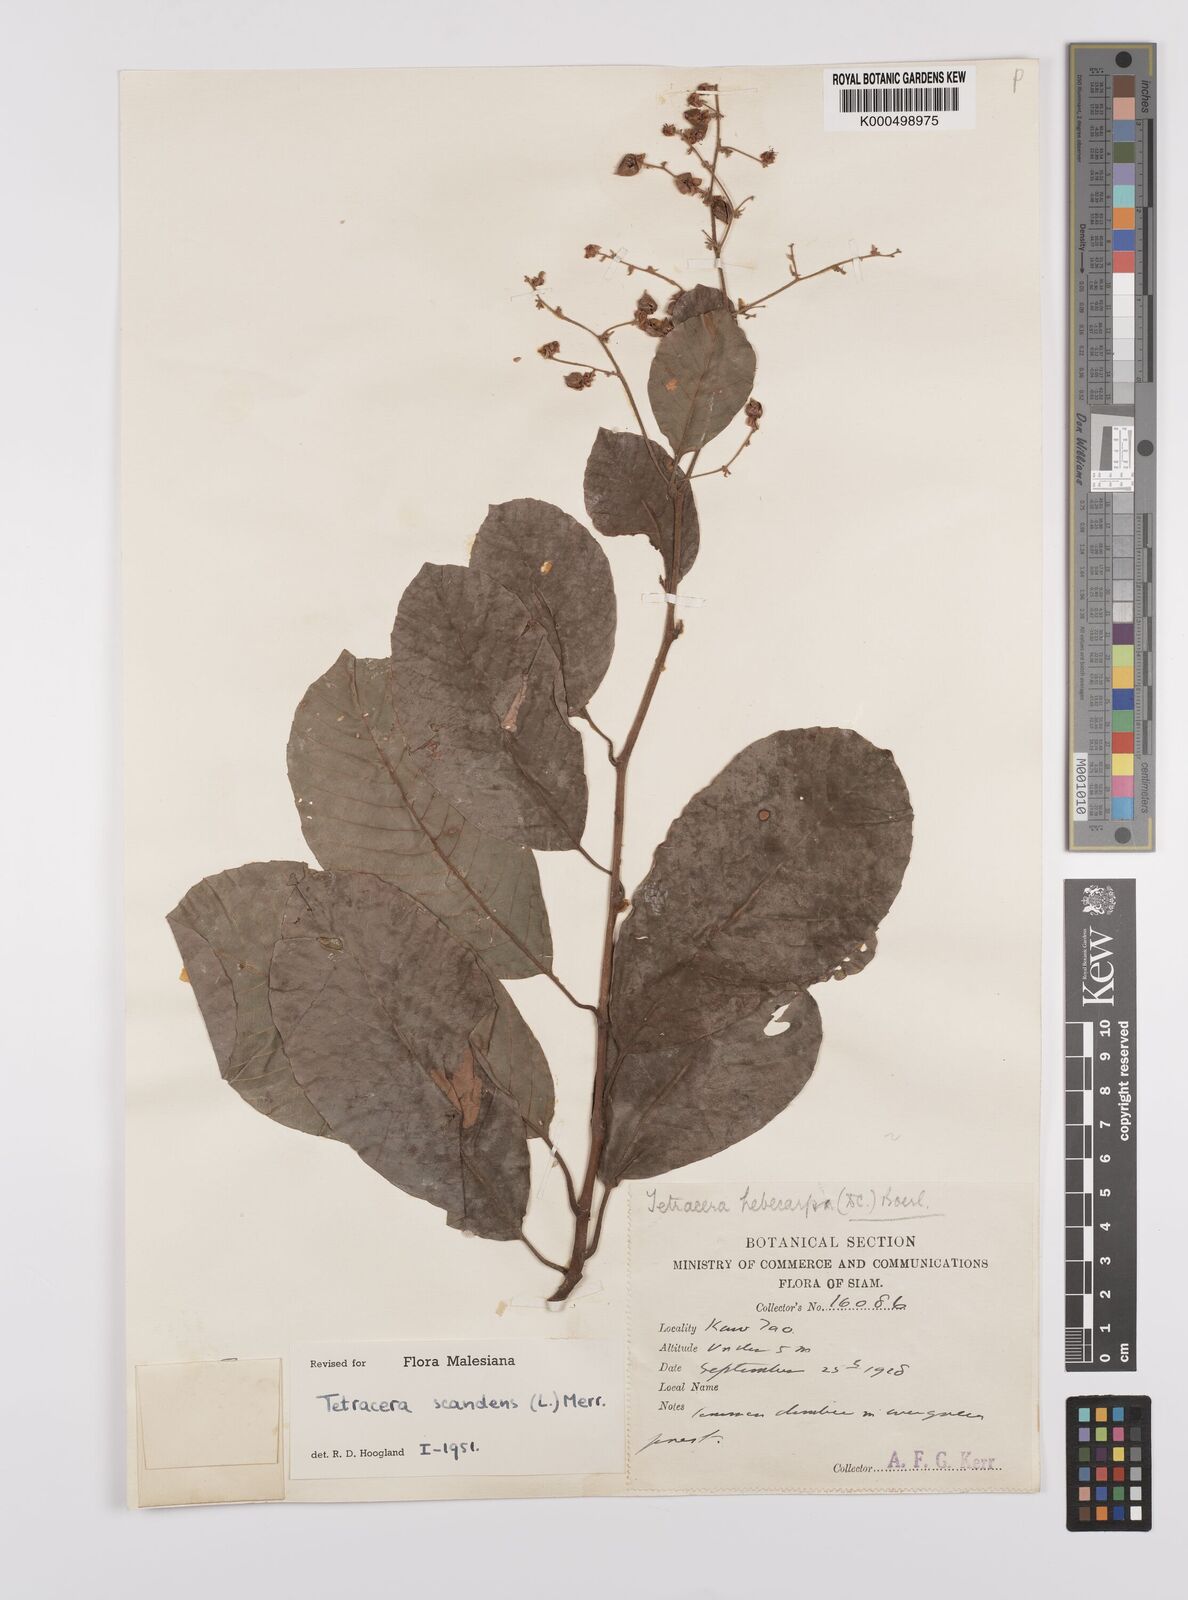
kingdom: Plantae
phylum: Tracheophyta
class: Magnoliopsida
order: Dilleniales
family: Dilleniaceae
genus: Tetracera
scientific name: Tetracera scandens
